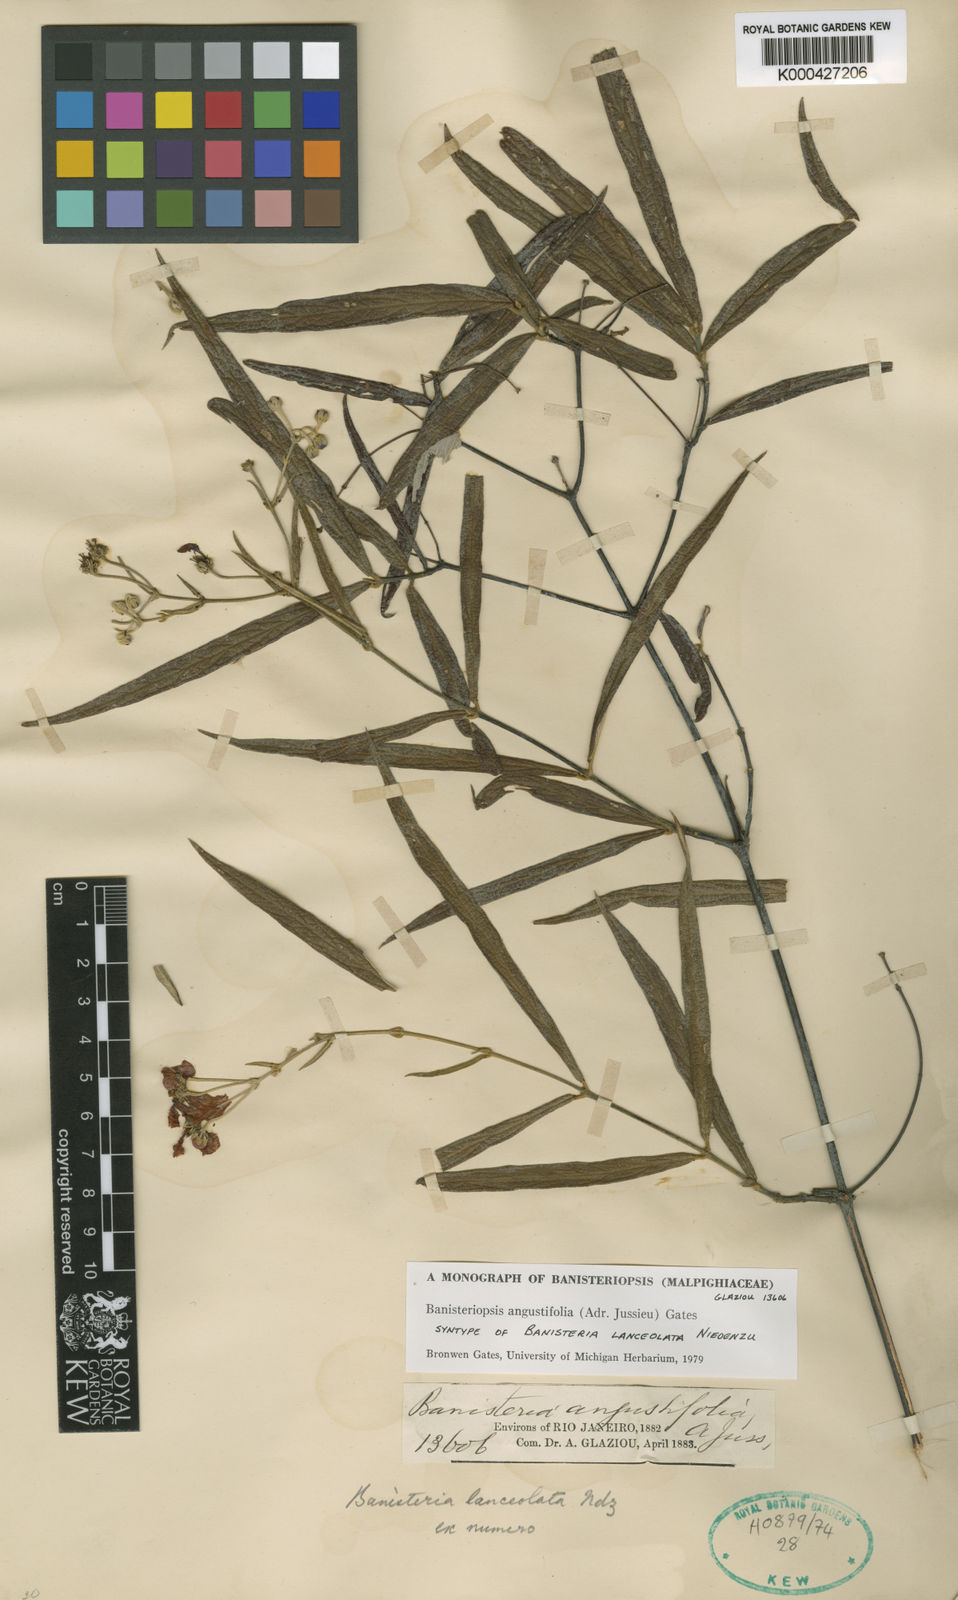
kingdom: Plantae
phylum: Tracheophyta
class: Magnoliopsida
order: Malpighiales
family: Malpighiaceae
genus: Banisteriopsis
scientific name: Banisteriopsis angustifolia
